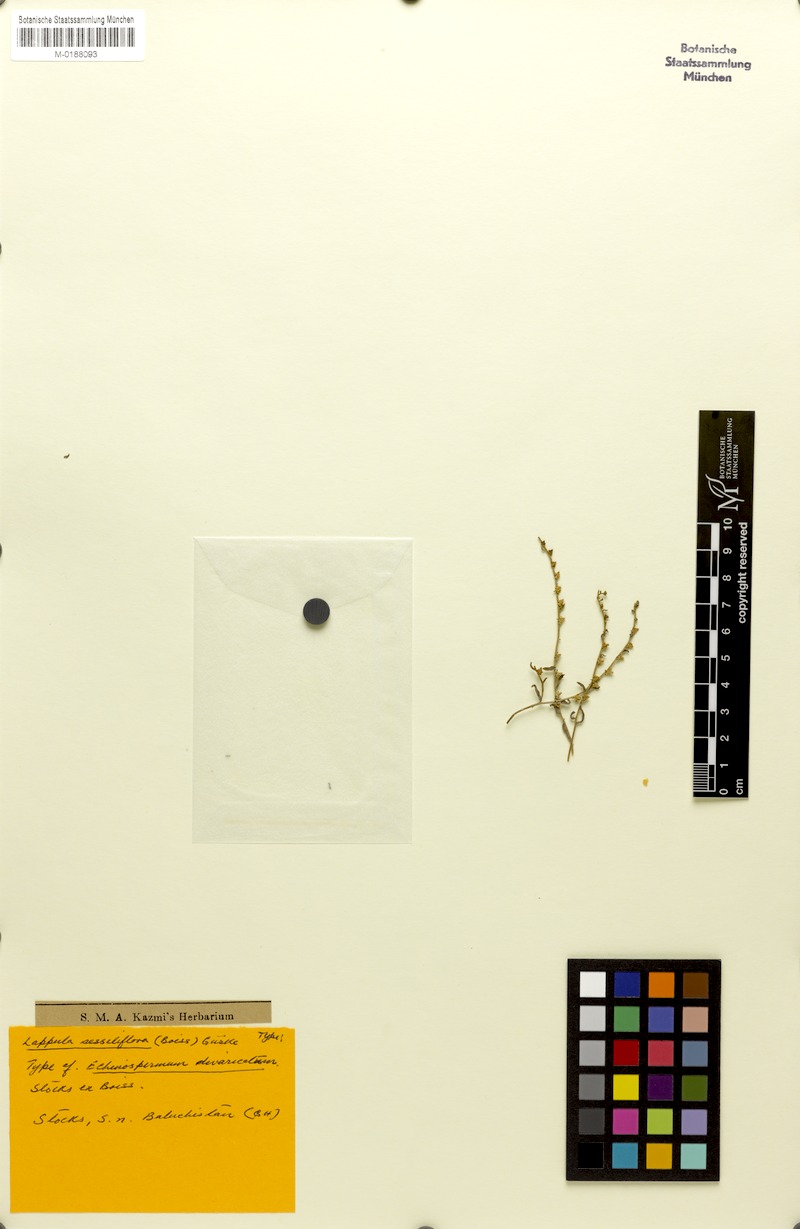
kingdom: Plantae
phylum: Tracheophyta
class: Magnoliopsida
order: Boraginales
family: Boraginaceae
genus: Rochelia
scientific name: Rochelia sessiliflora
